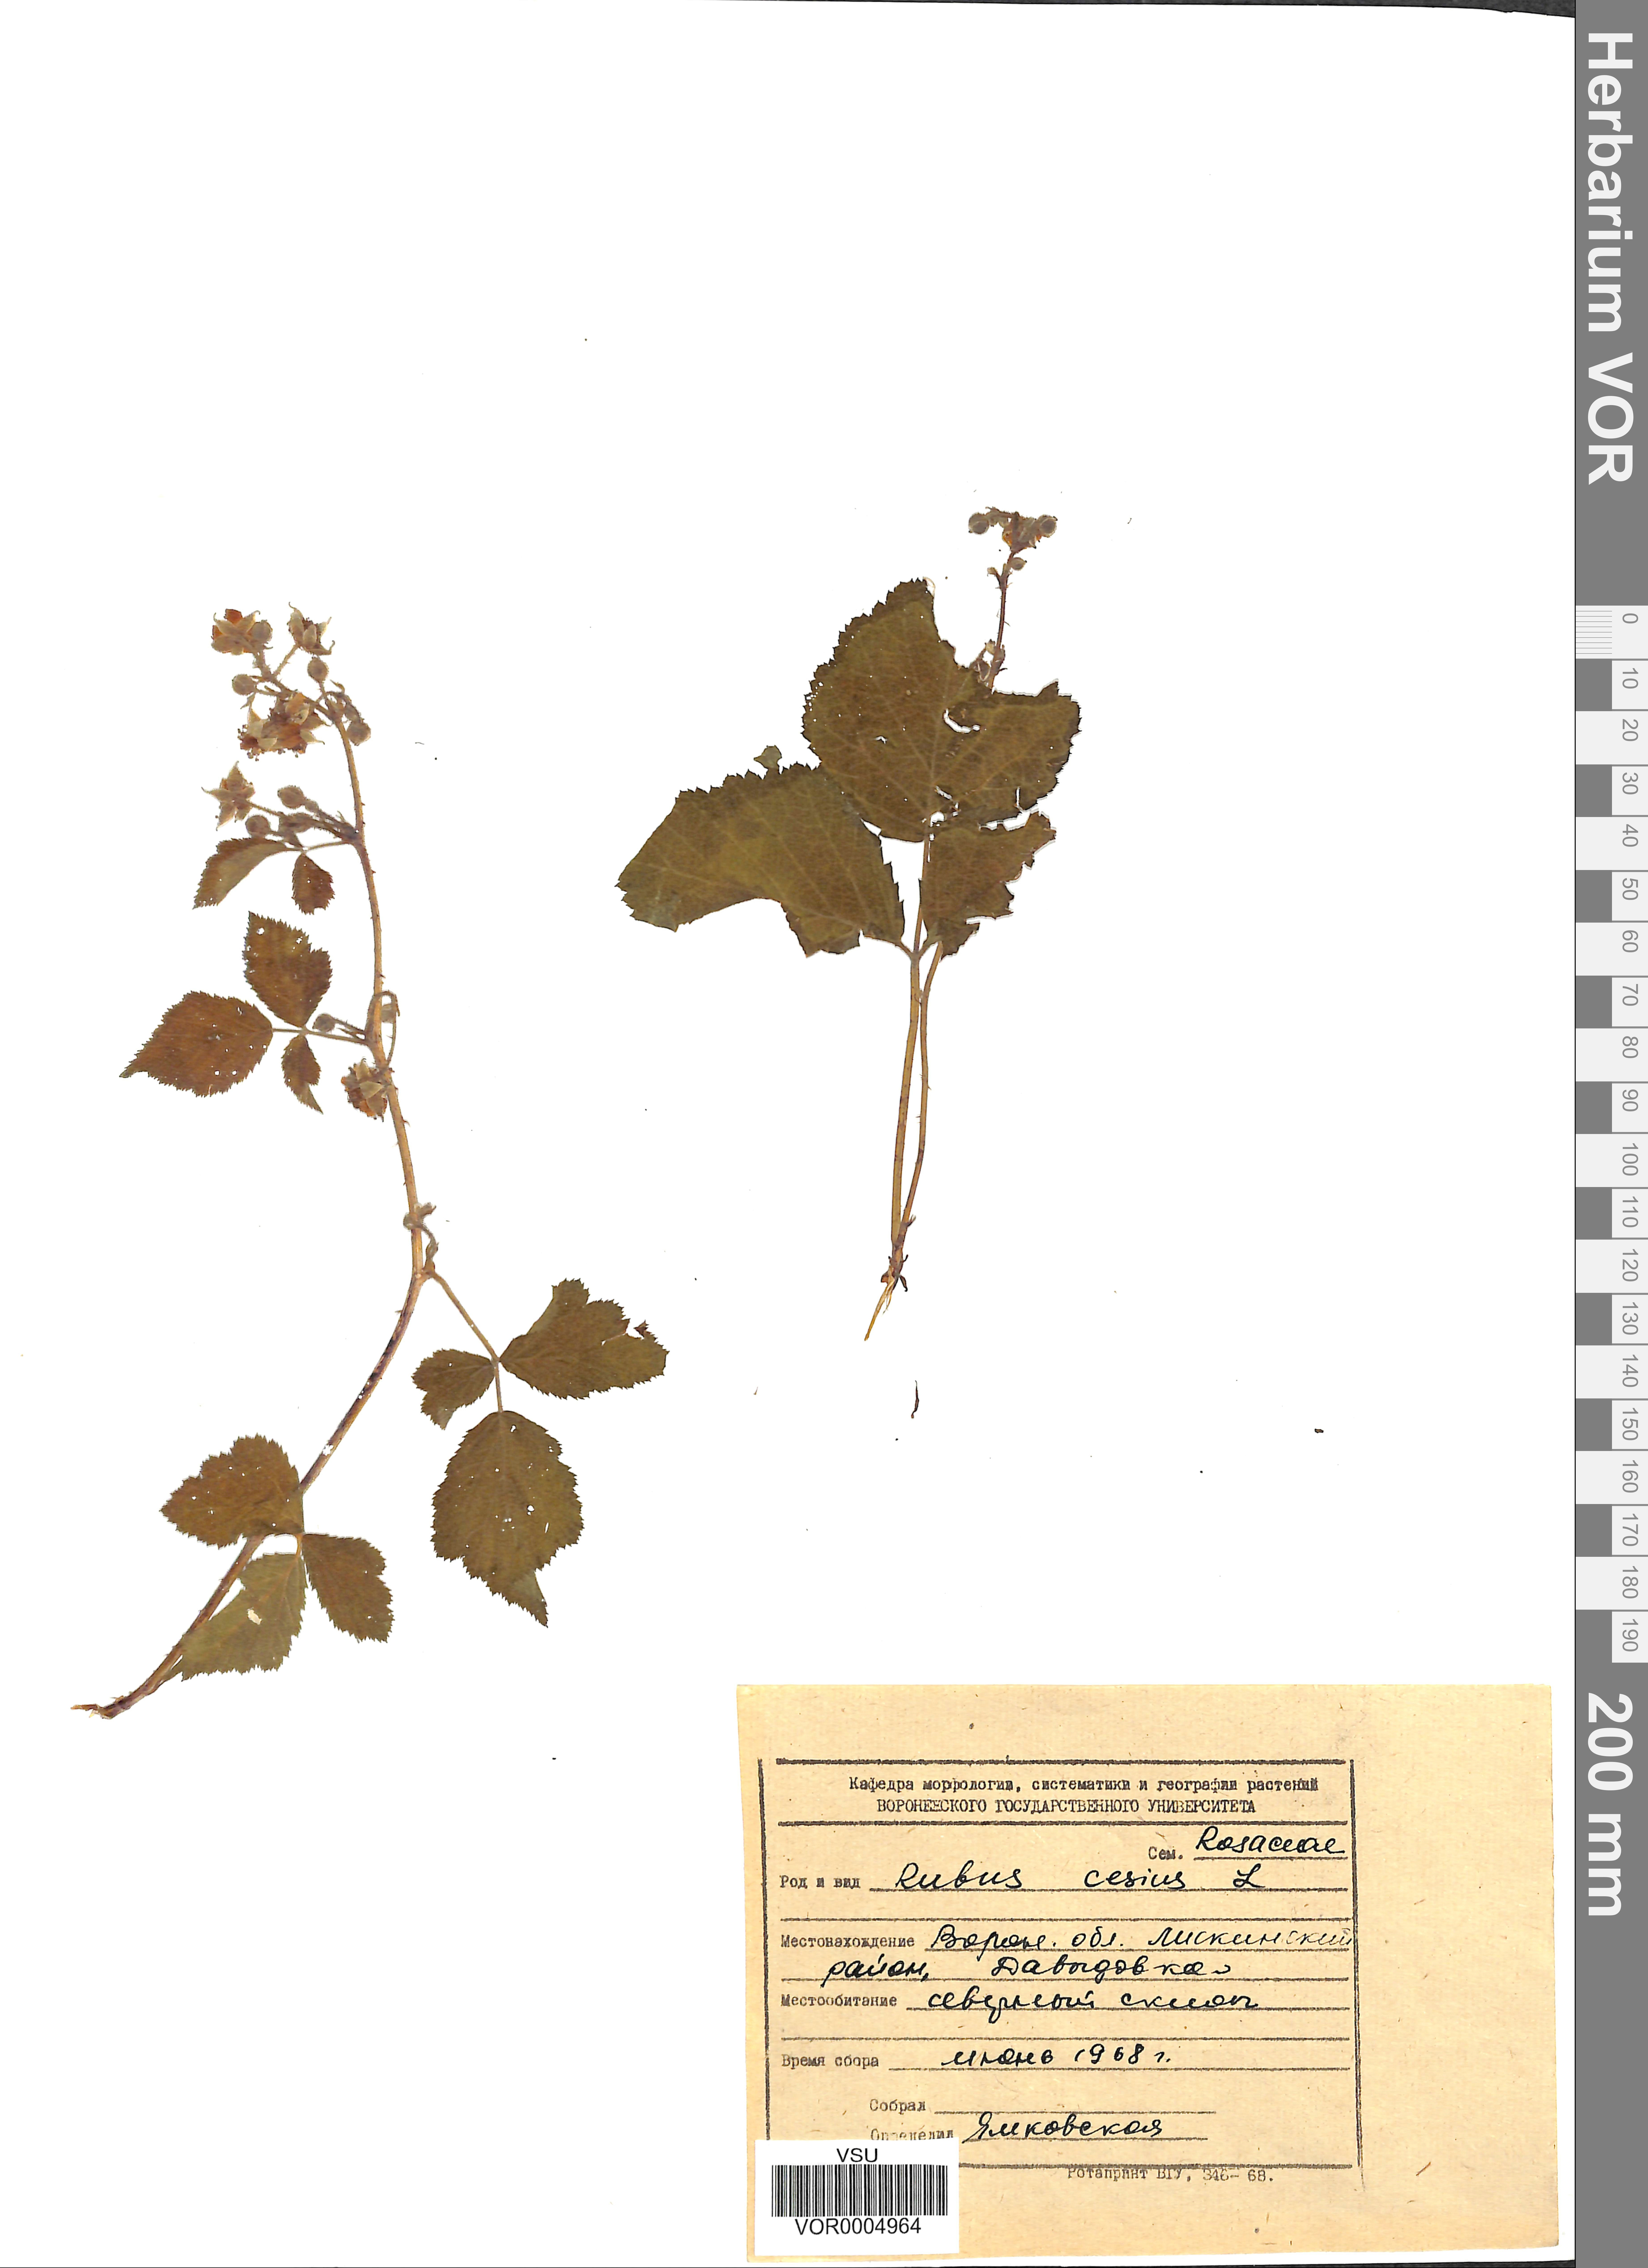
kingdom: Plantae
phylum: Tracheophyta
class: Magnoliopsida
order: Rosales
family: Rosaceae
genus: Rubus
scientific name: Rubus caesius
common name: Dewberry
